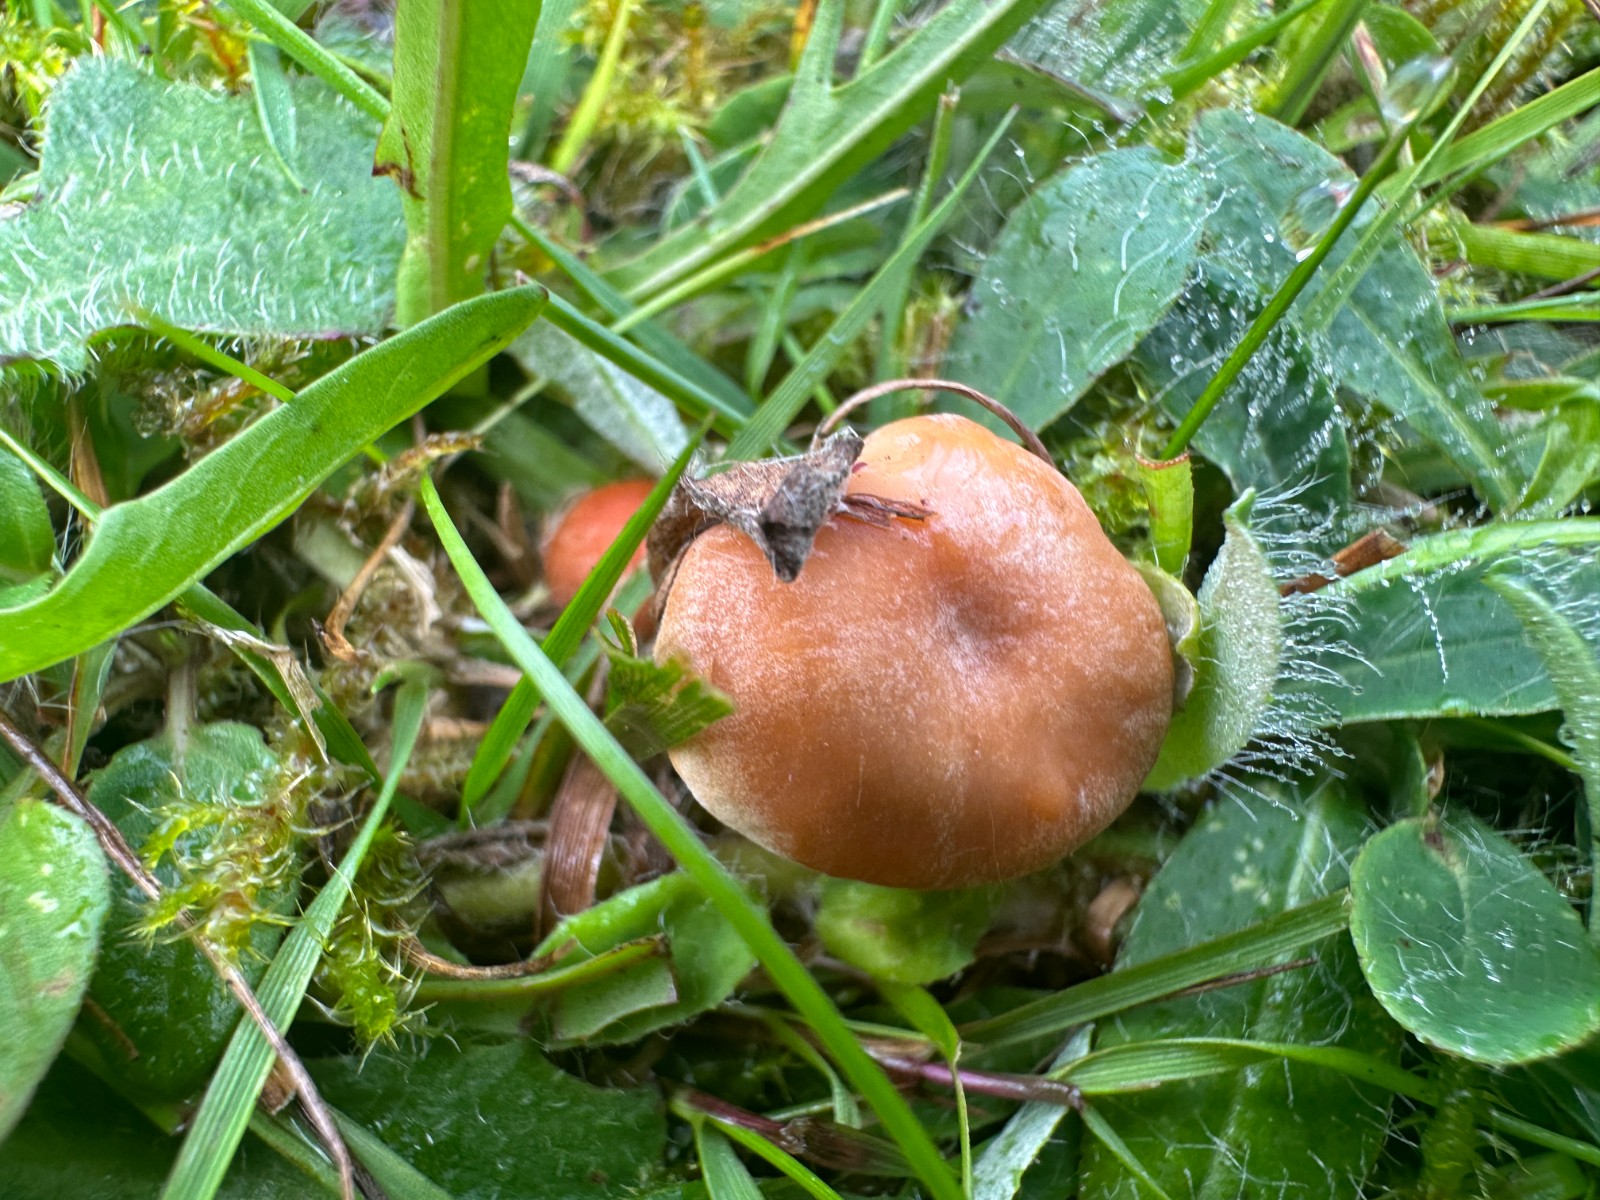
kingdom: Fungi
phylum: Basidiomycota
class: Agaricomycetes
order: Agaricales
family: Hygrophoraceae
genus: Cuphophyllus
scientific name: Cuphophyllus pratensis
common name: eng-vokshat
